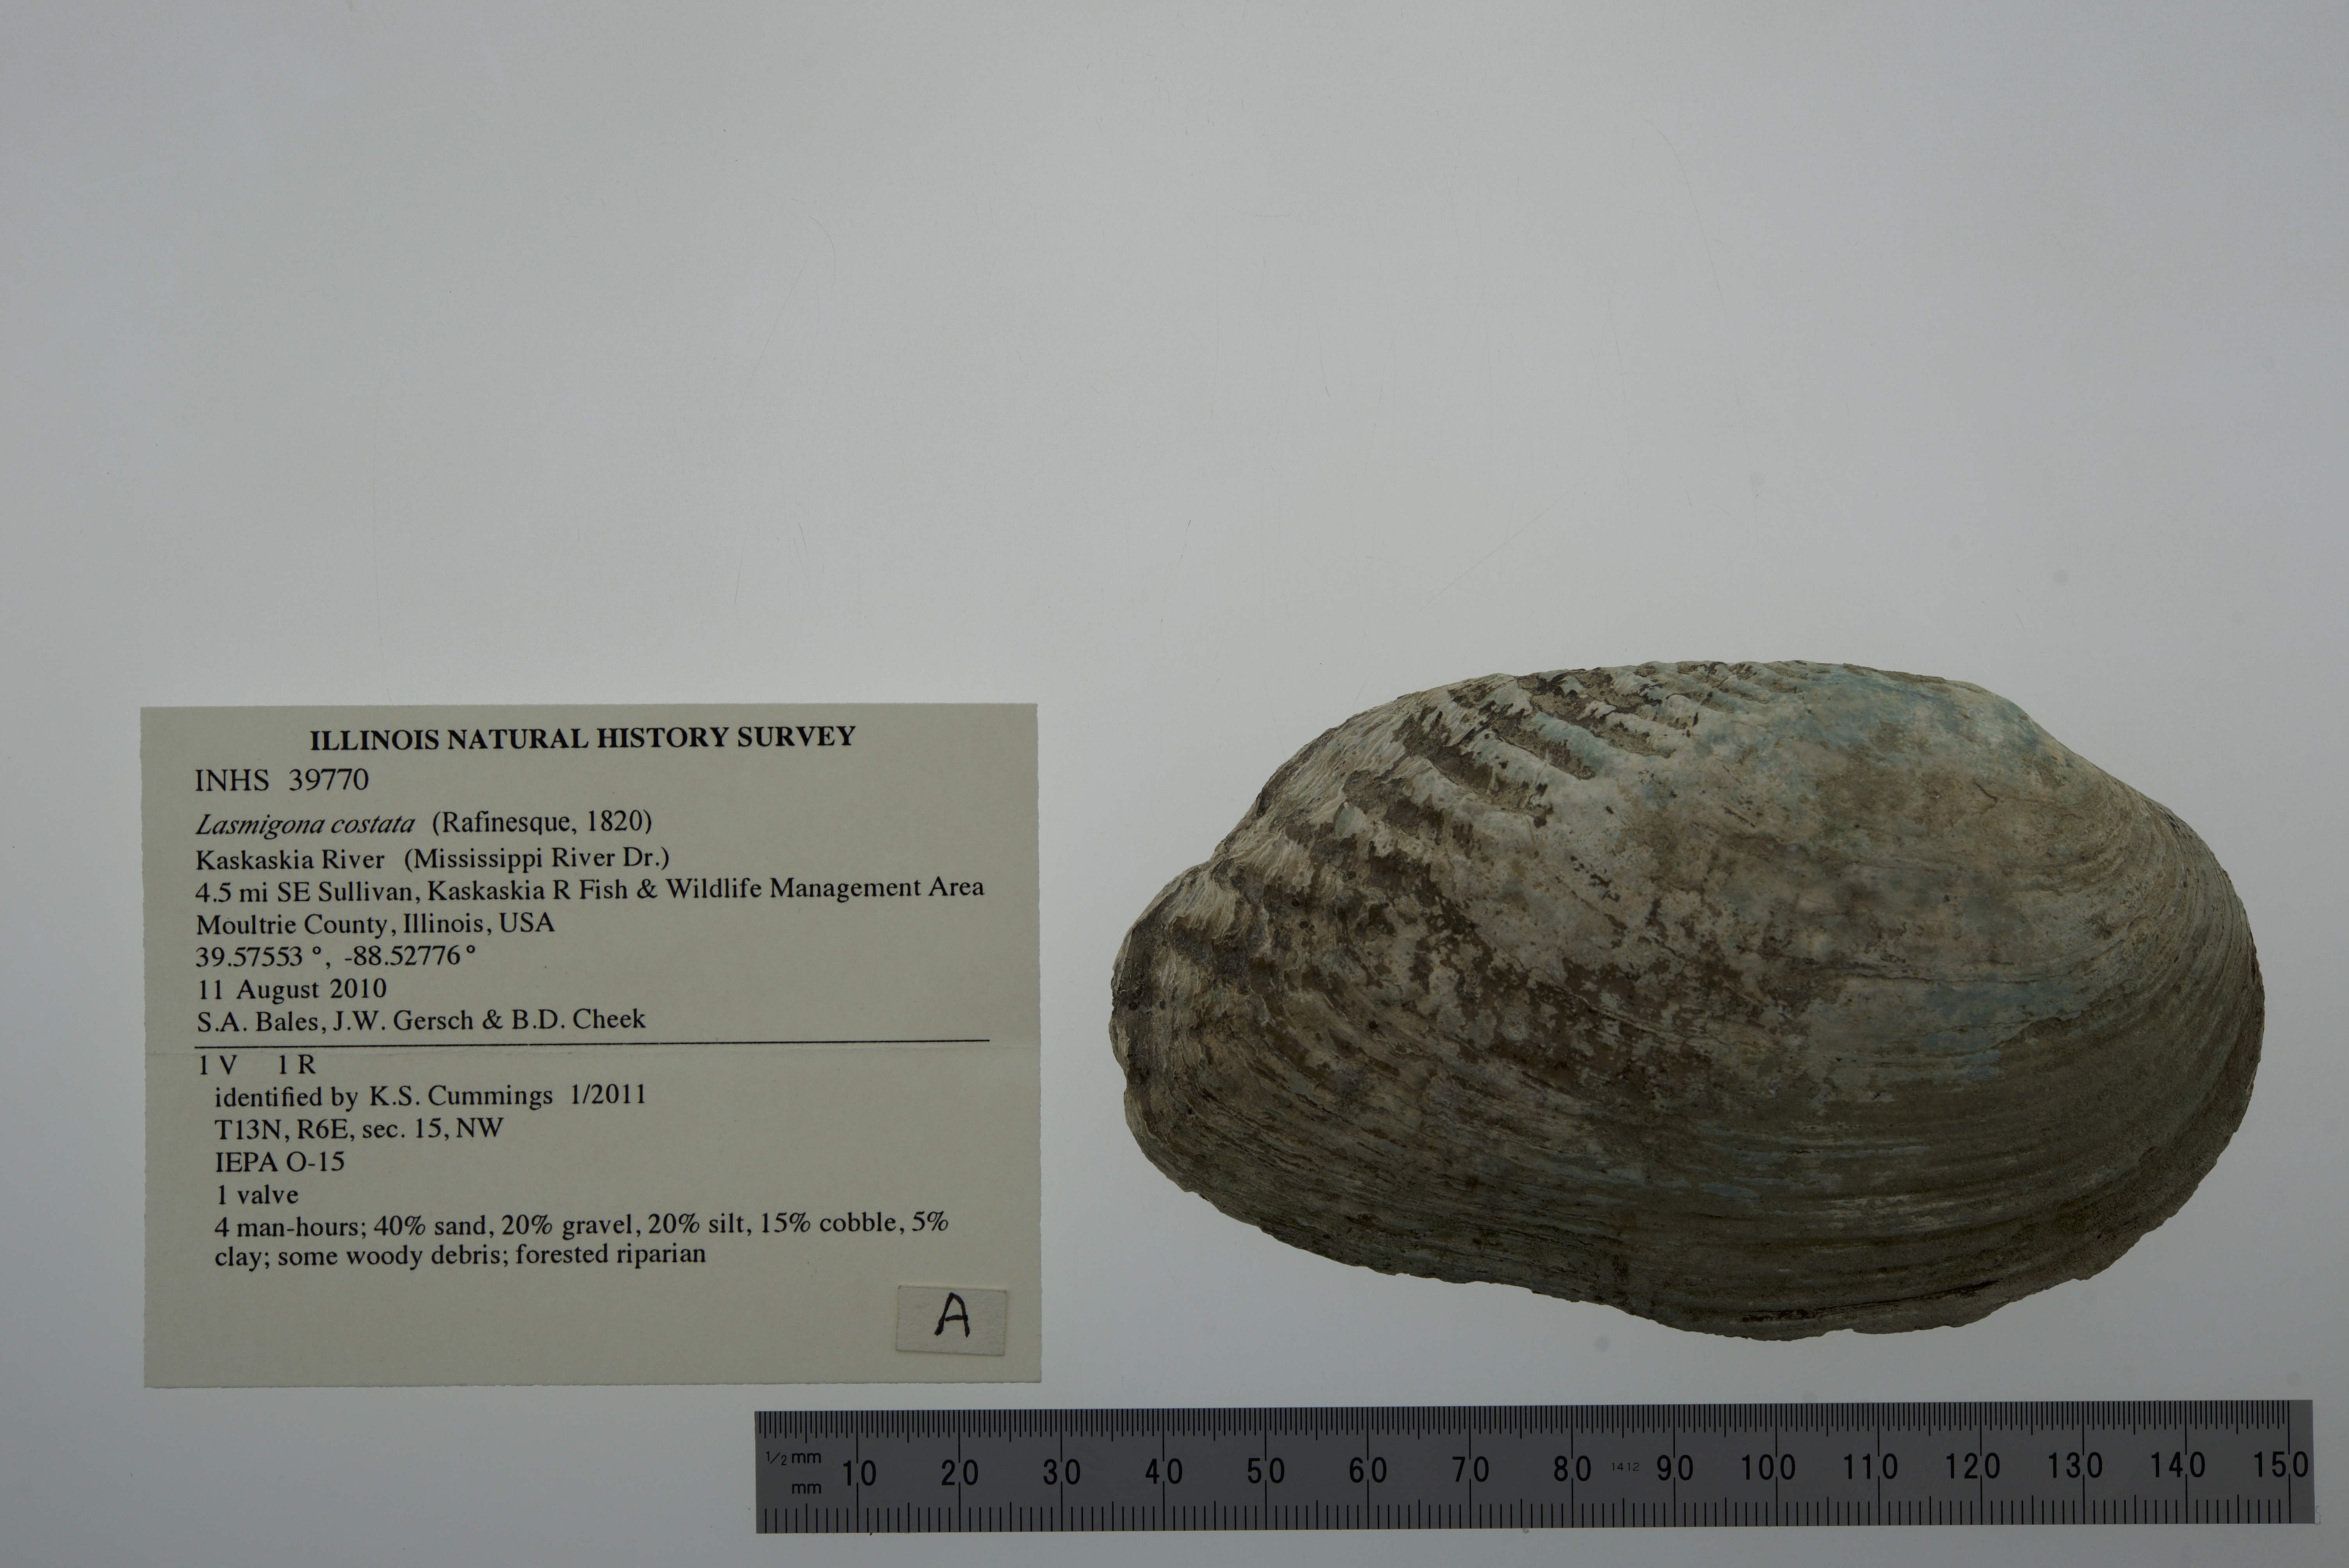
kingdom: Animalia
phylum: Mollusca
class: Bivalvia
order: Unionida
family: Unionidae
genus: Lasmigona
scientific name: Lasmigona costata
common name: Flutedshell
